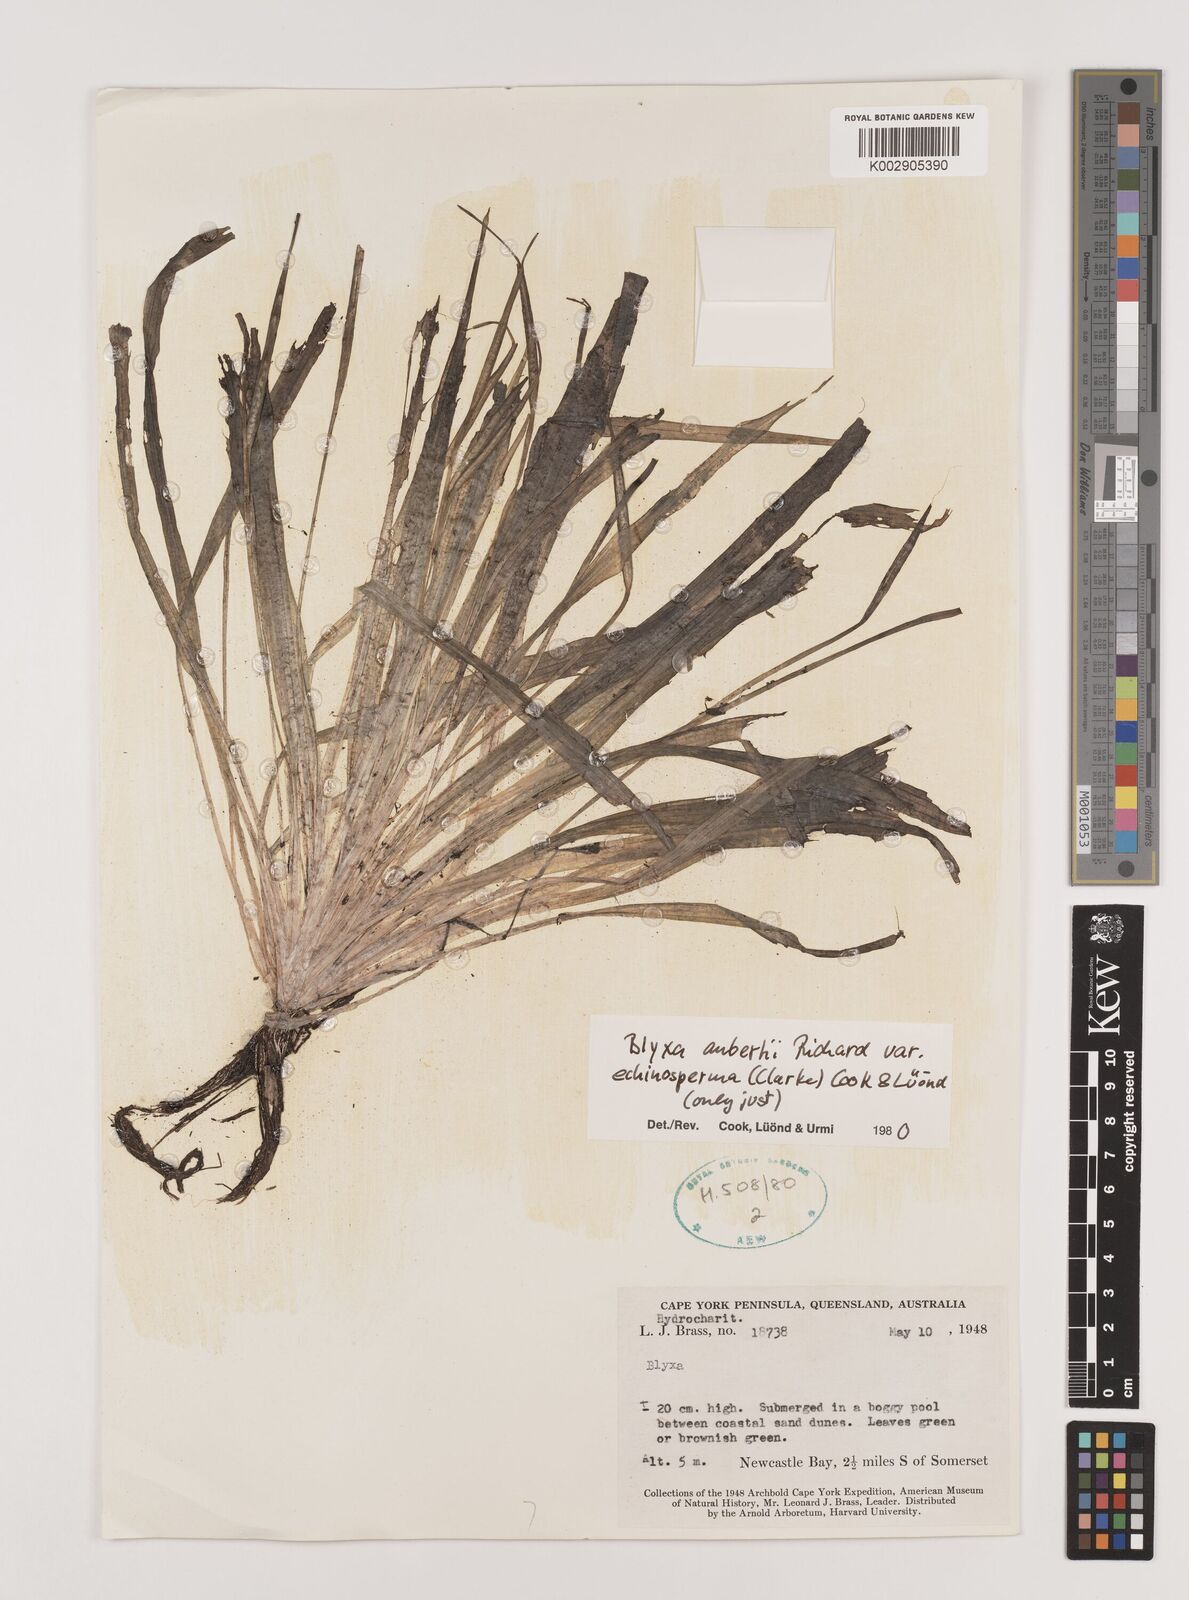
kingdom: Plantae
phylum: Tracheophyta
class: Liliopsida
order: Alismatales
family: Hydrocharitaceae
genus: Blyxa
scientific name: Blyxa echinosperma
